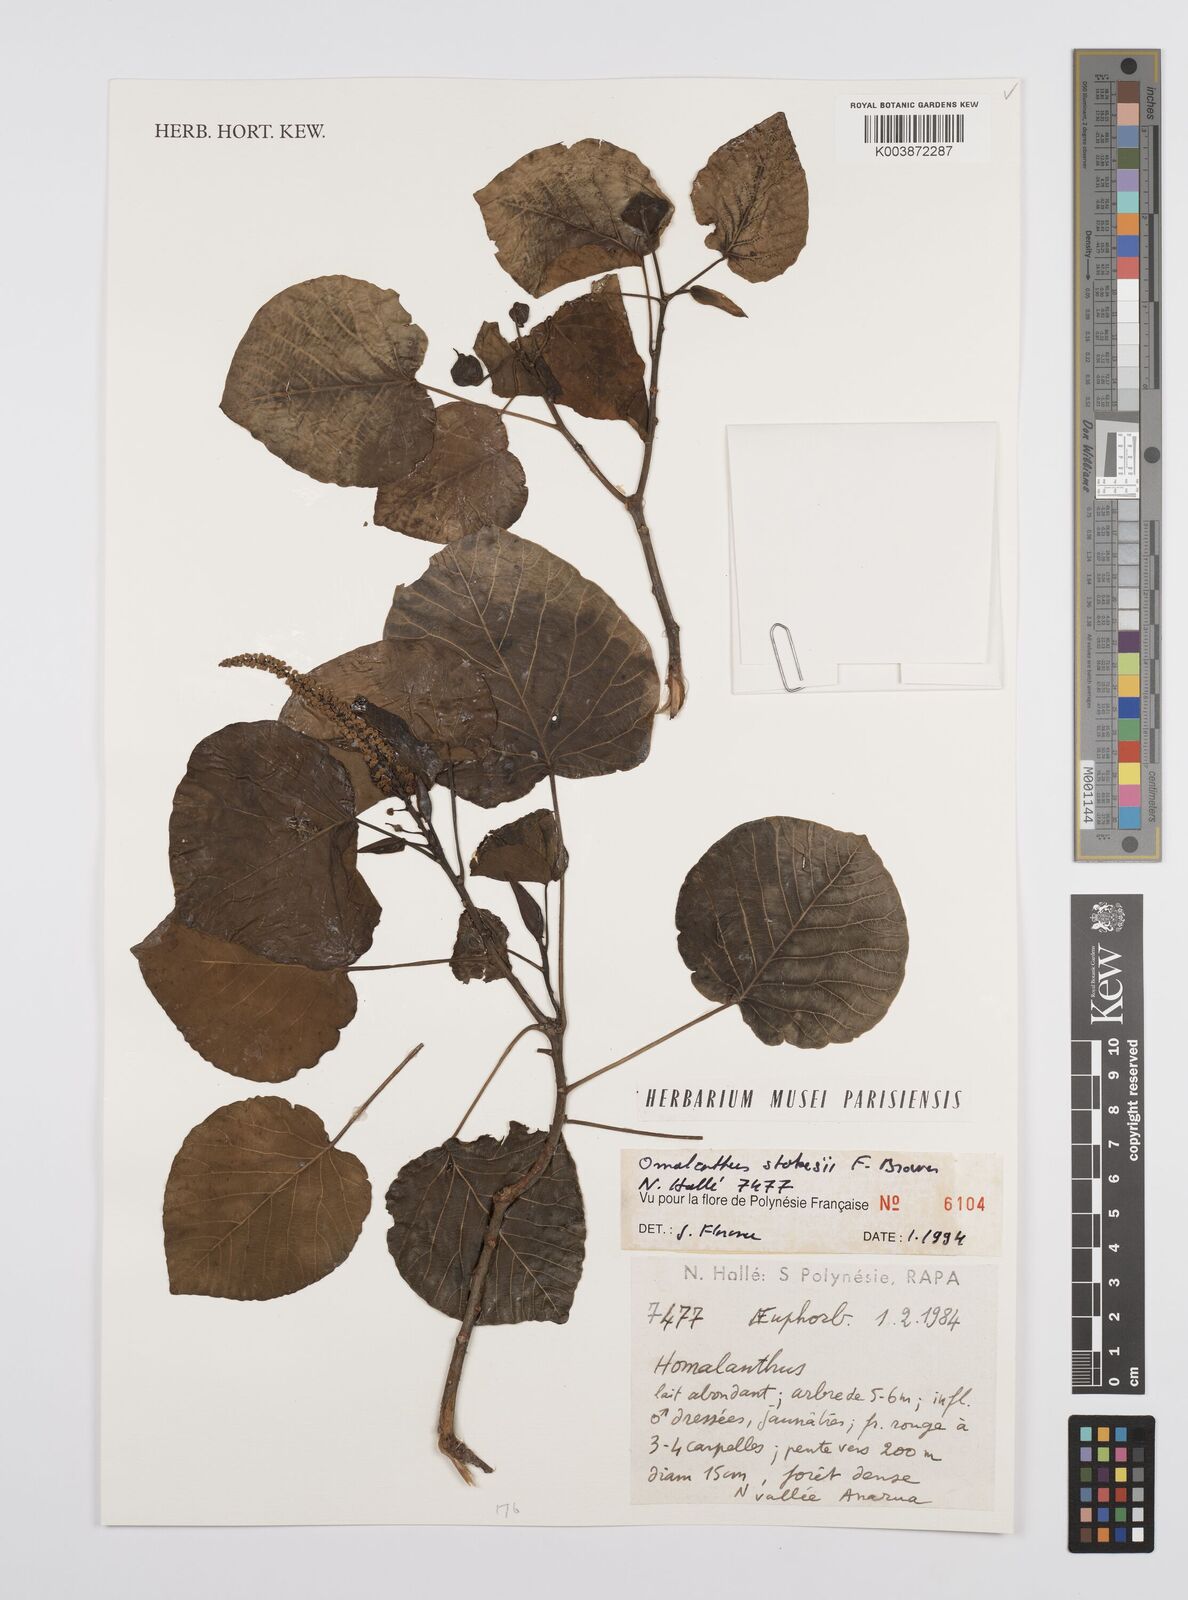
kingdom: Plantae
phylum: Tracheophyta
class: Magnoliopsida
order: Malpighiales
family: Euphorbiaceae
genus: Homalanthus
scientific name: Homalanthus stokesii
